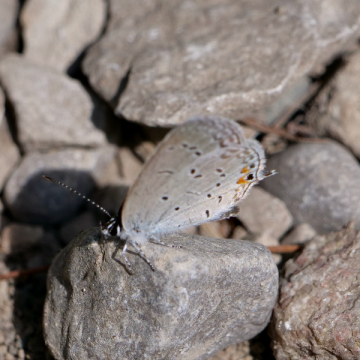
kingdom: Animalia
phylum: Arthropoda
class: Insecta
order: Lepidoptera
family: Lycaenidae
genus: Elkalyce
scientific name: Elkalyce comyntas
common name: Eastern Tailed-Blue
